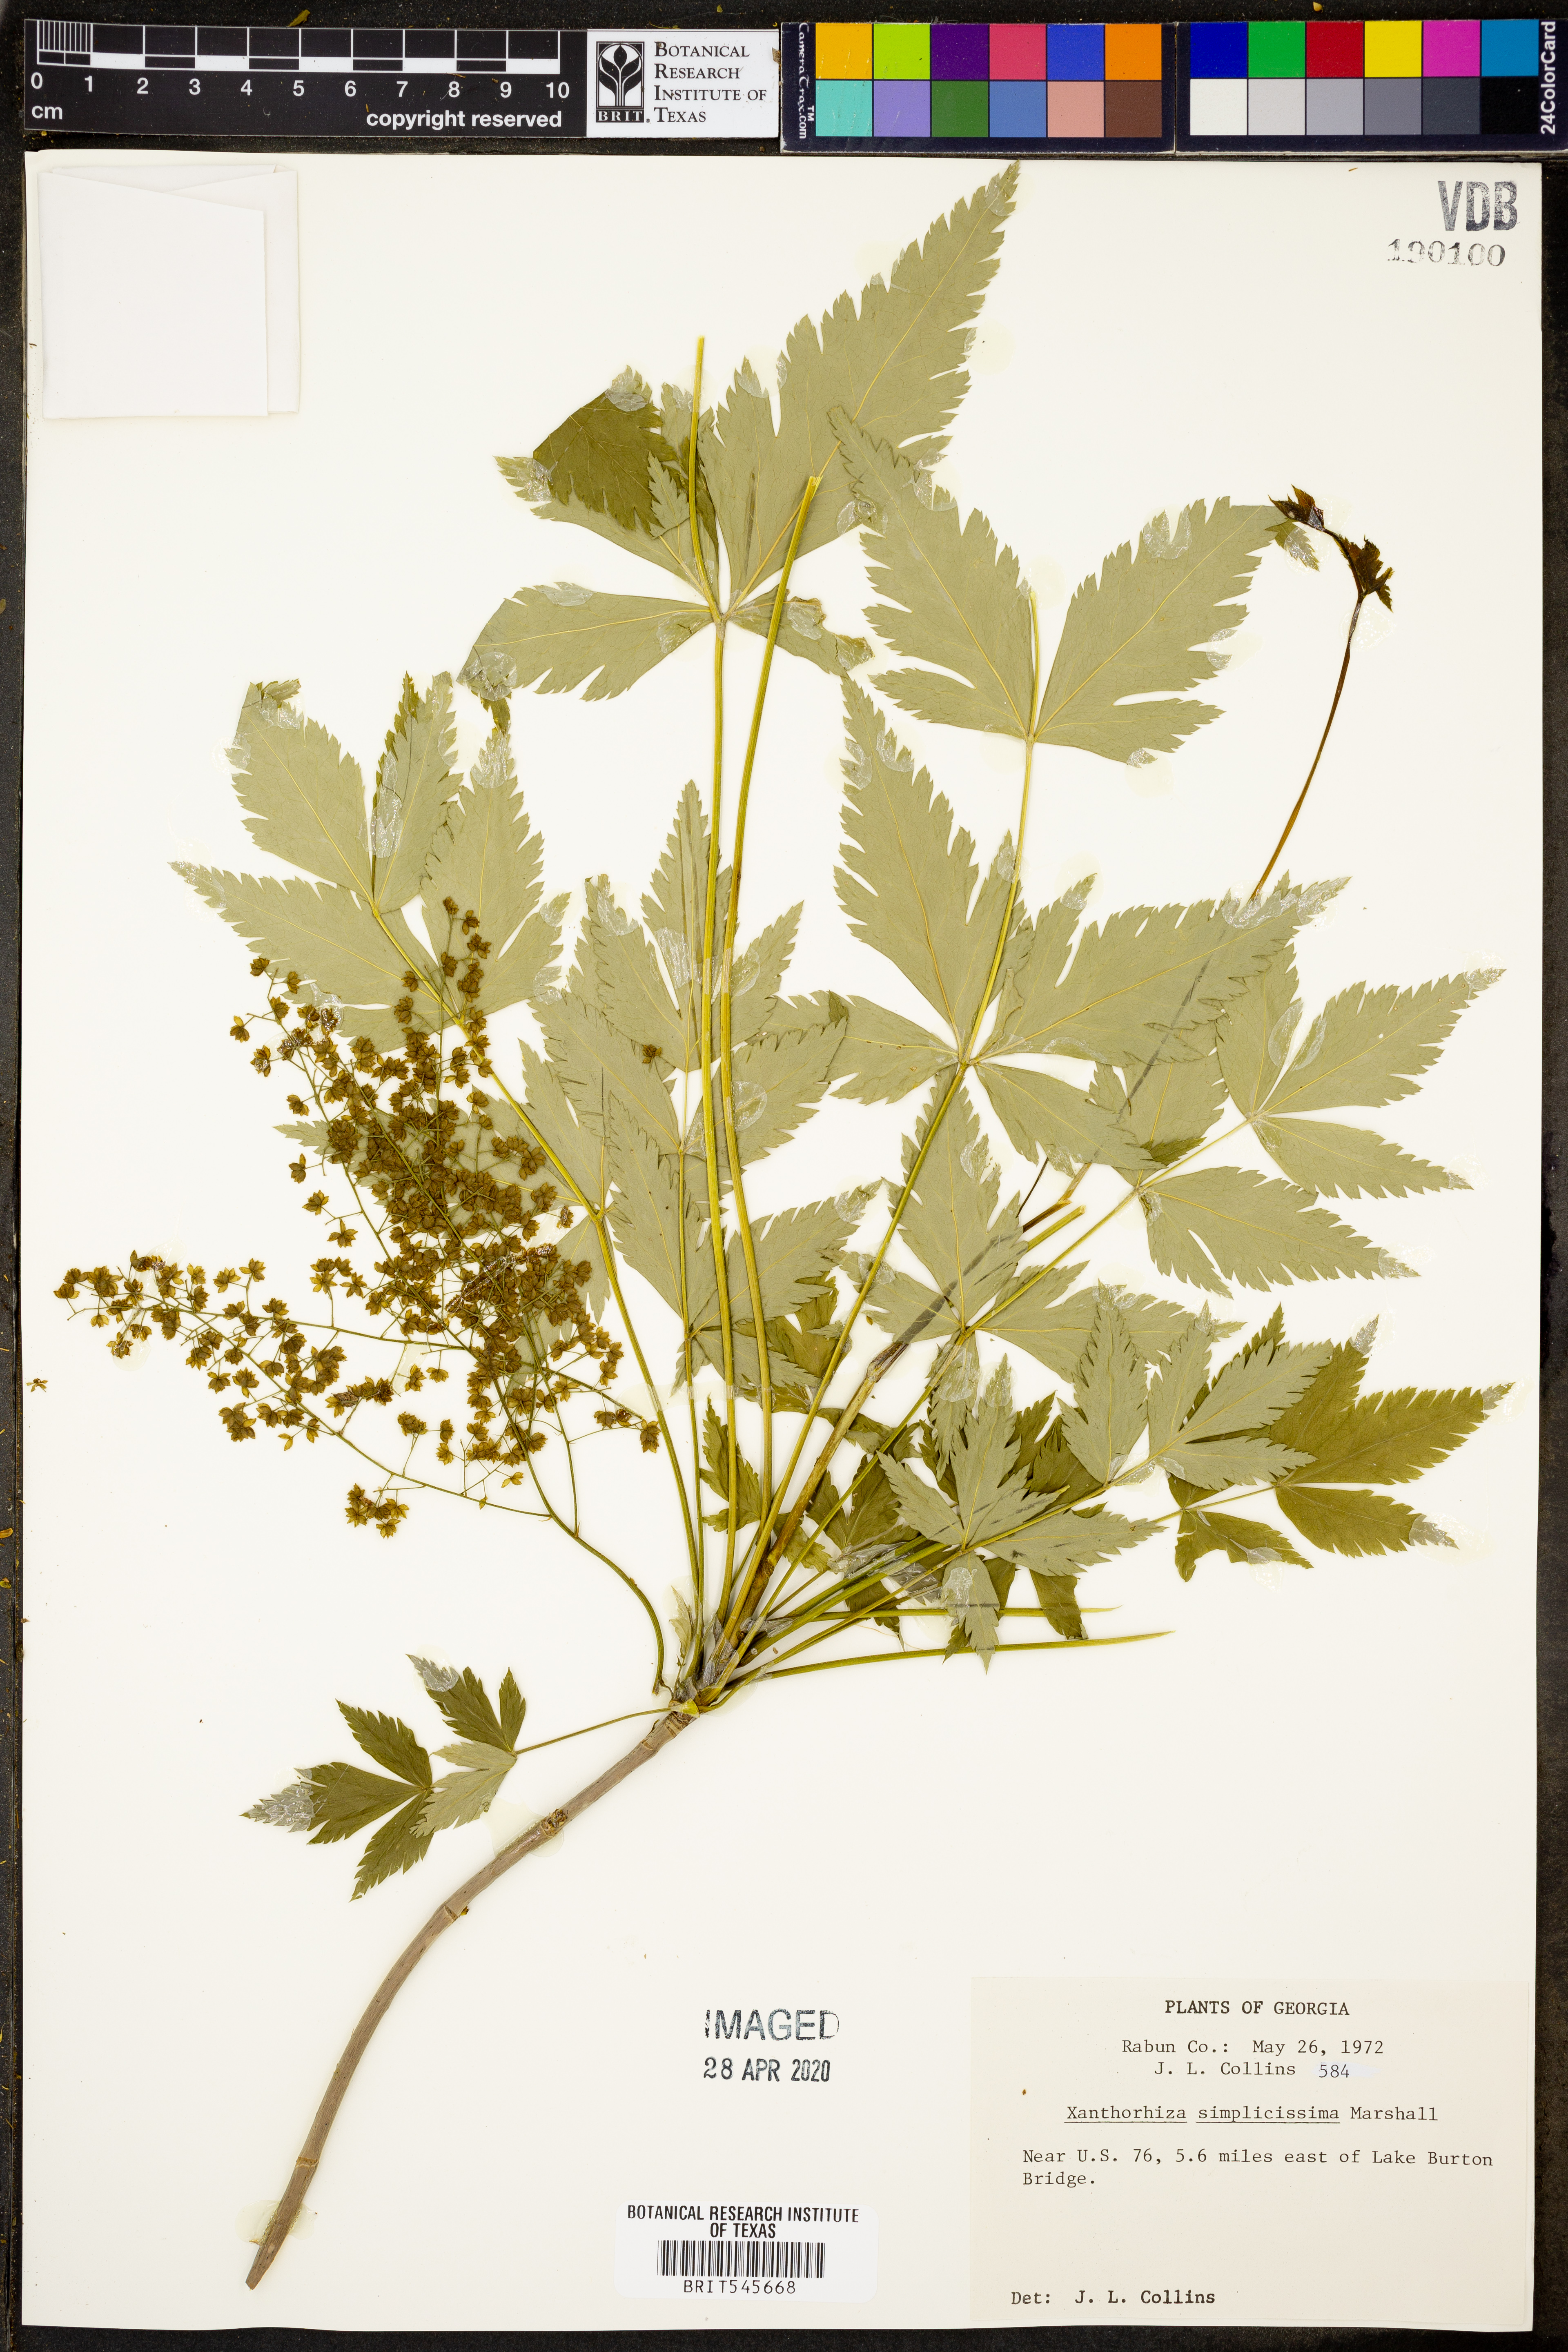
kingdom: Plantae
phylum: Tracheophyta
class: Magnoliopsida
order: Ranunculales
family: Ranunculaceae
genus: Xanthorhiza
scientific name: Xanthorhiza simplicissima
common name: Yellowroot
